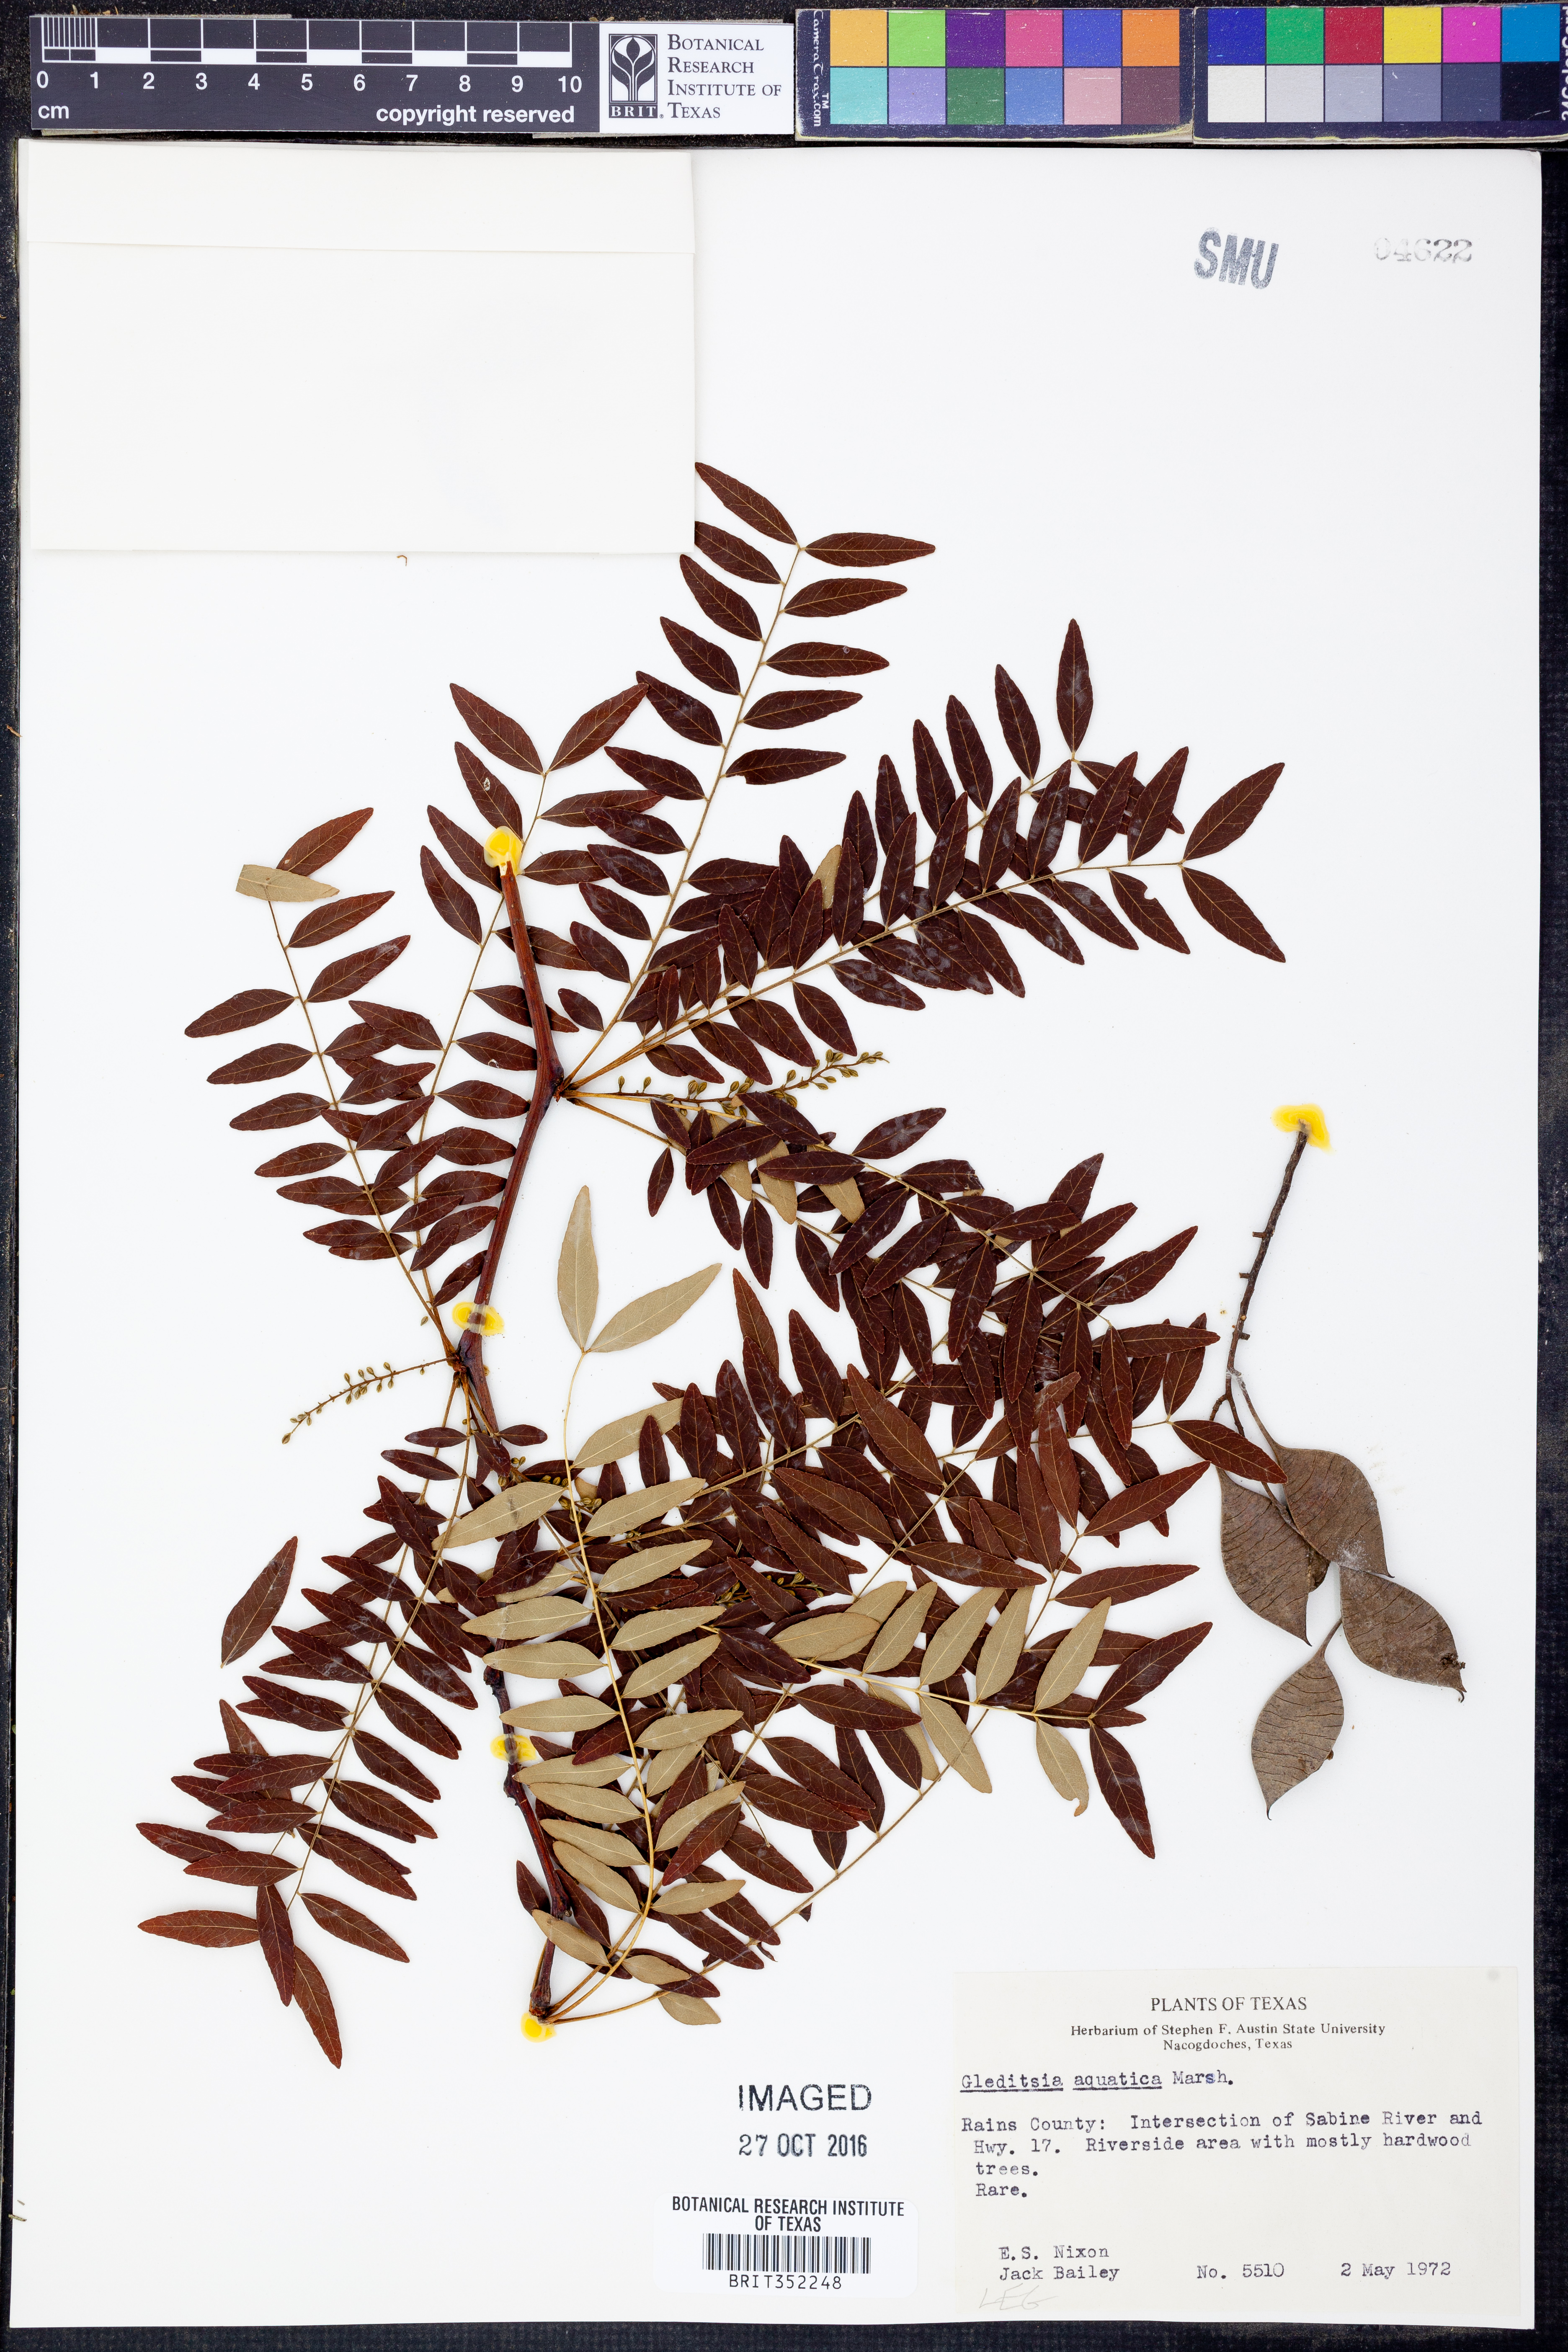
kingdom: Plantae
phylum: Tracheophyta
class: Magnoliopsida
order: Fabales
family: Fabaceae
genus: Gleditsia
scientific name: Gleditsia aquatica
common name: Swamp-locust
